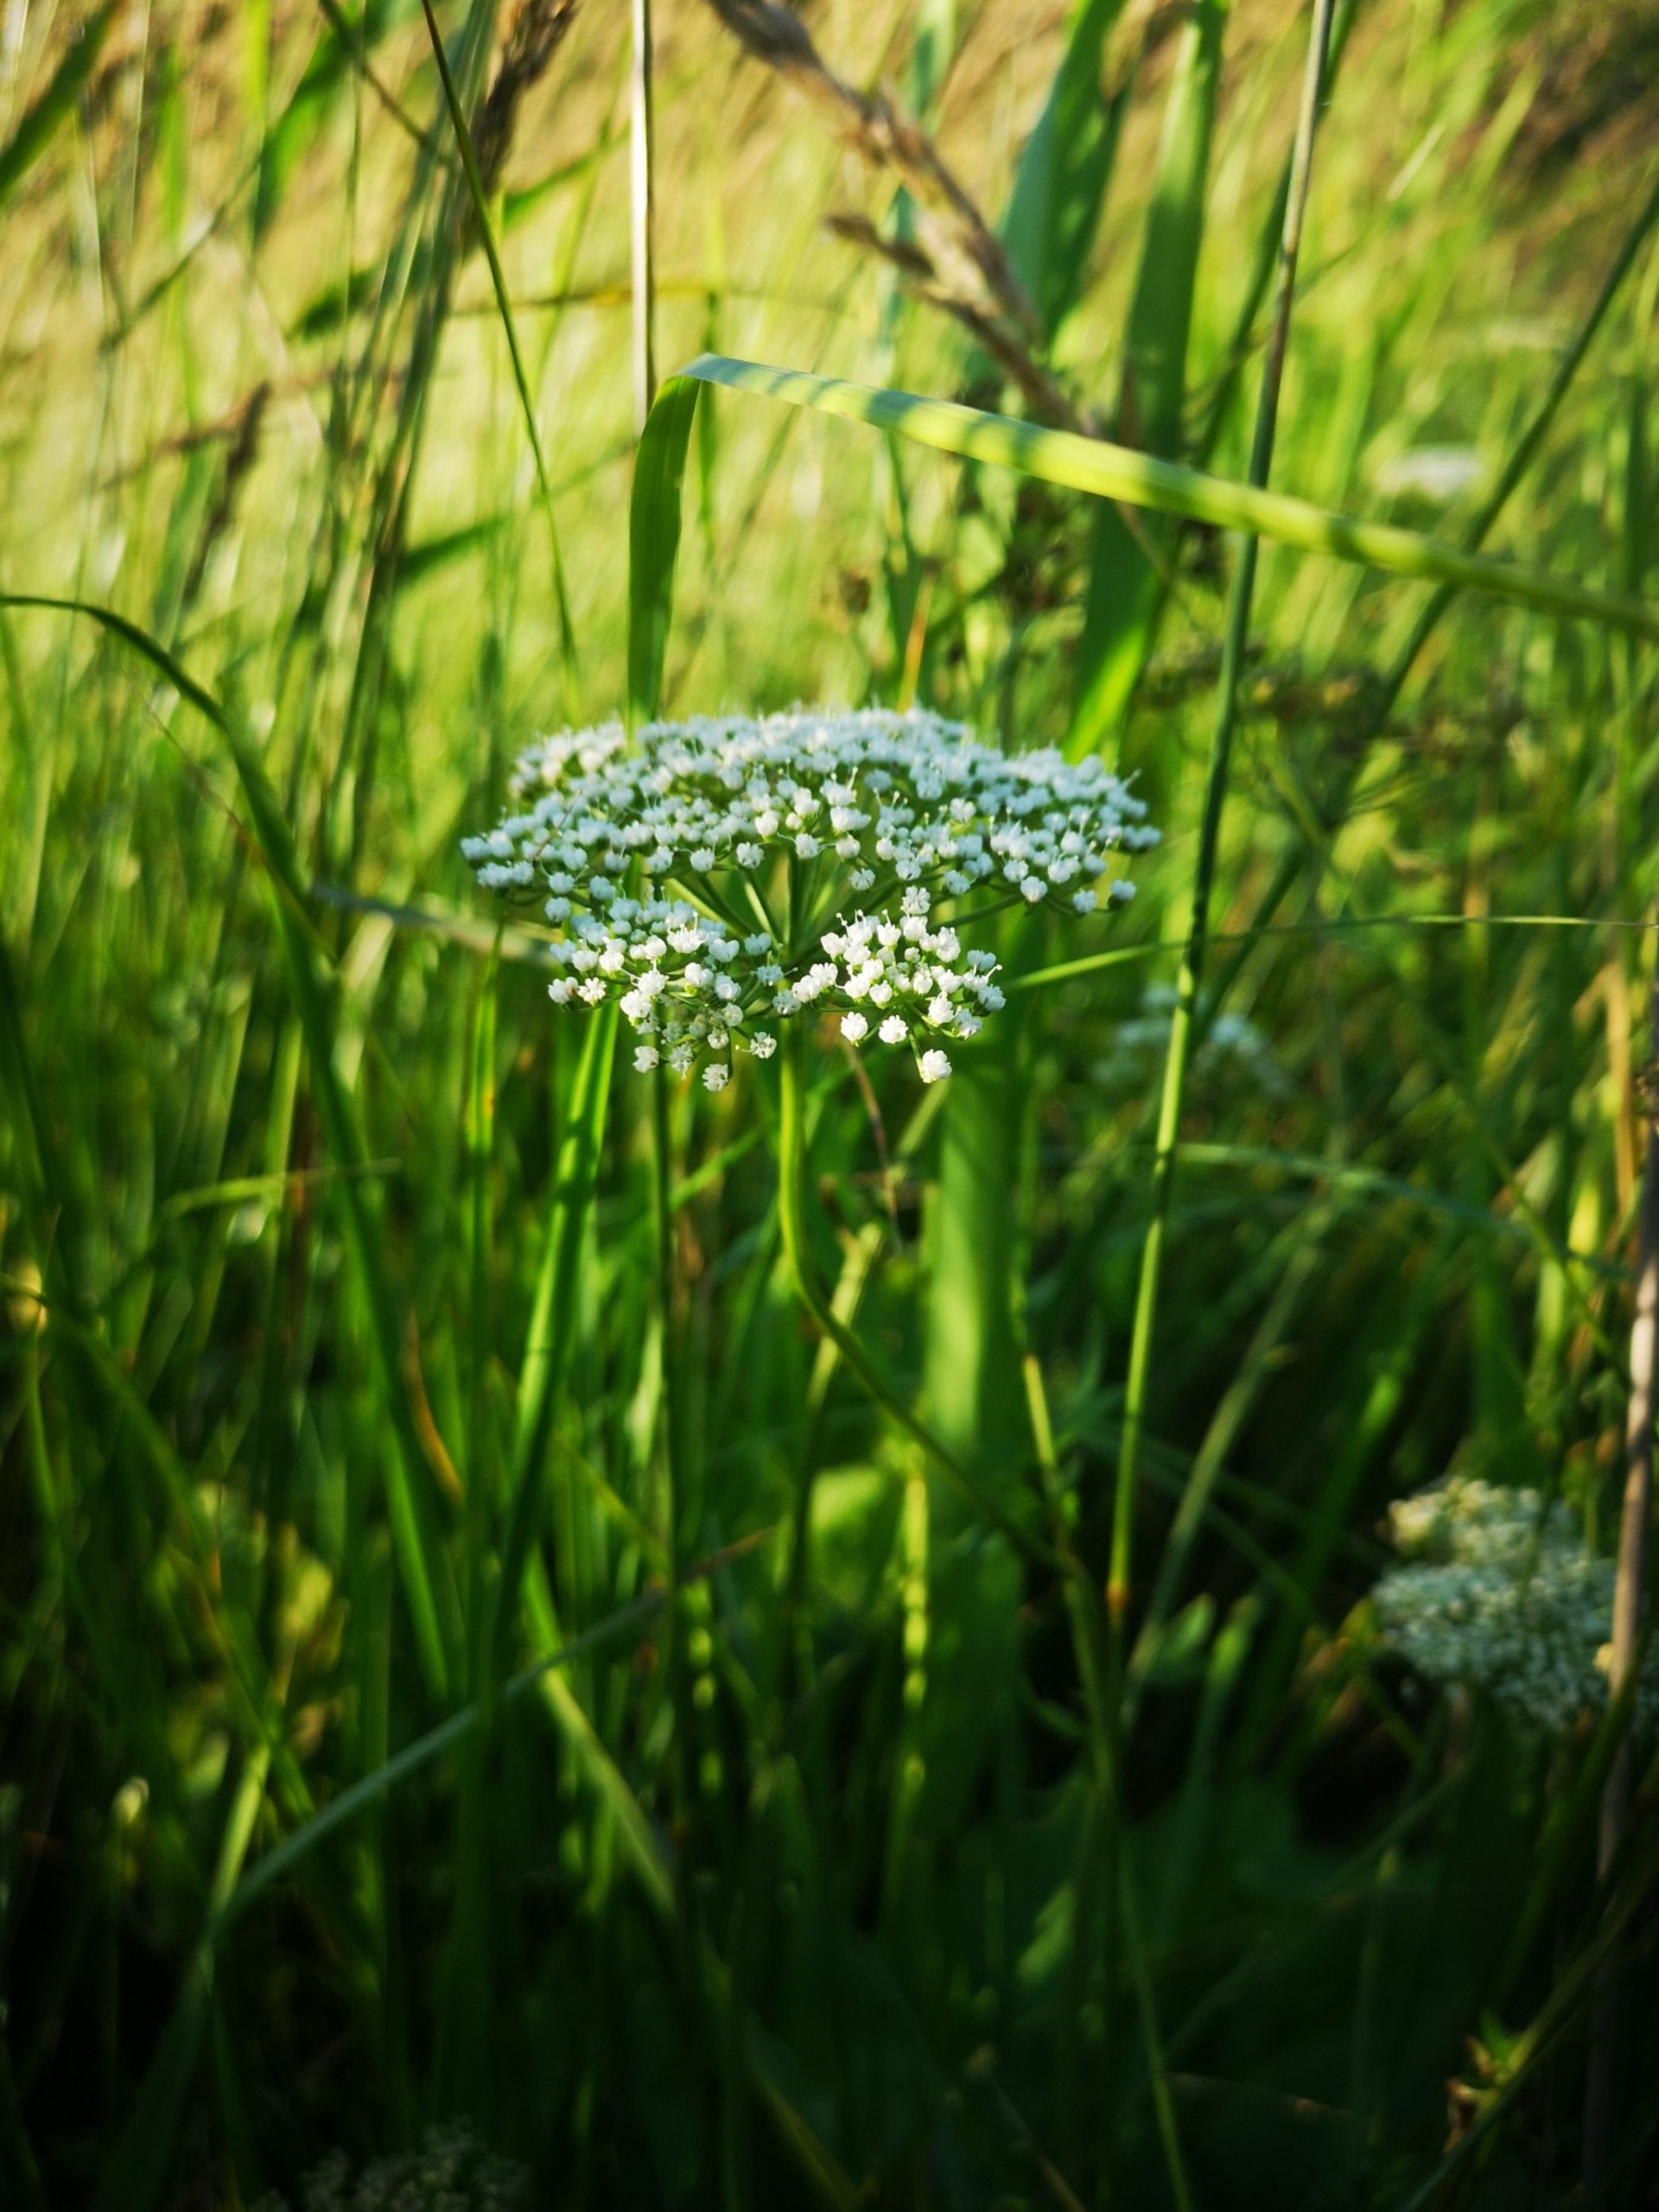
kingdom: Plantae
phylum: Tracheophyta
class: Magnoliopsida
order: Apiales
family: Apiaceae
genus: Selinum
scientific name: Selinum carvifolia
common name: Seline
